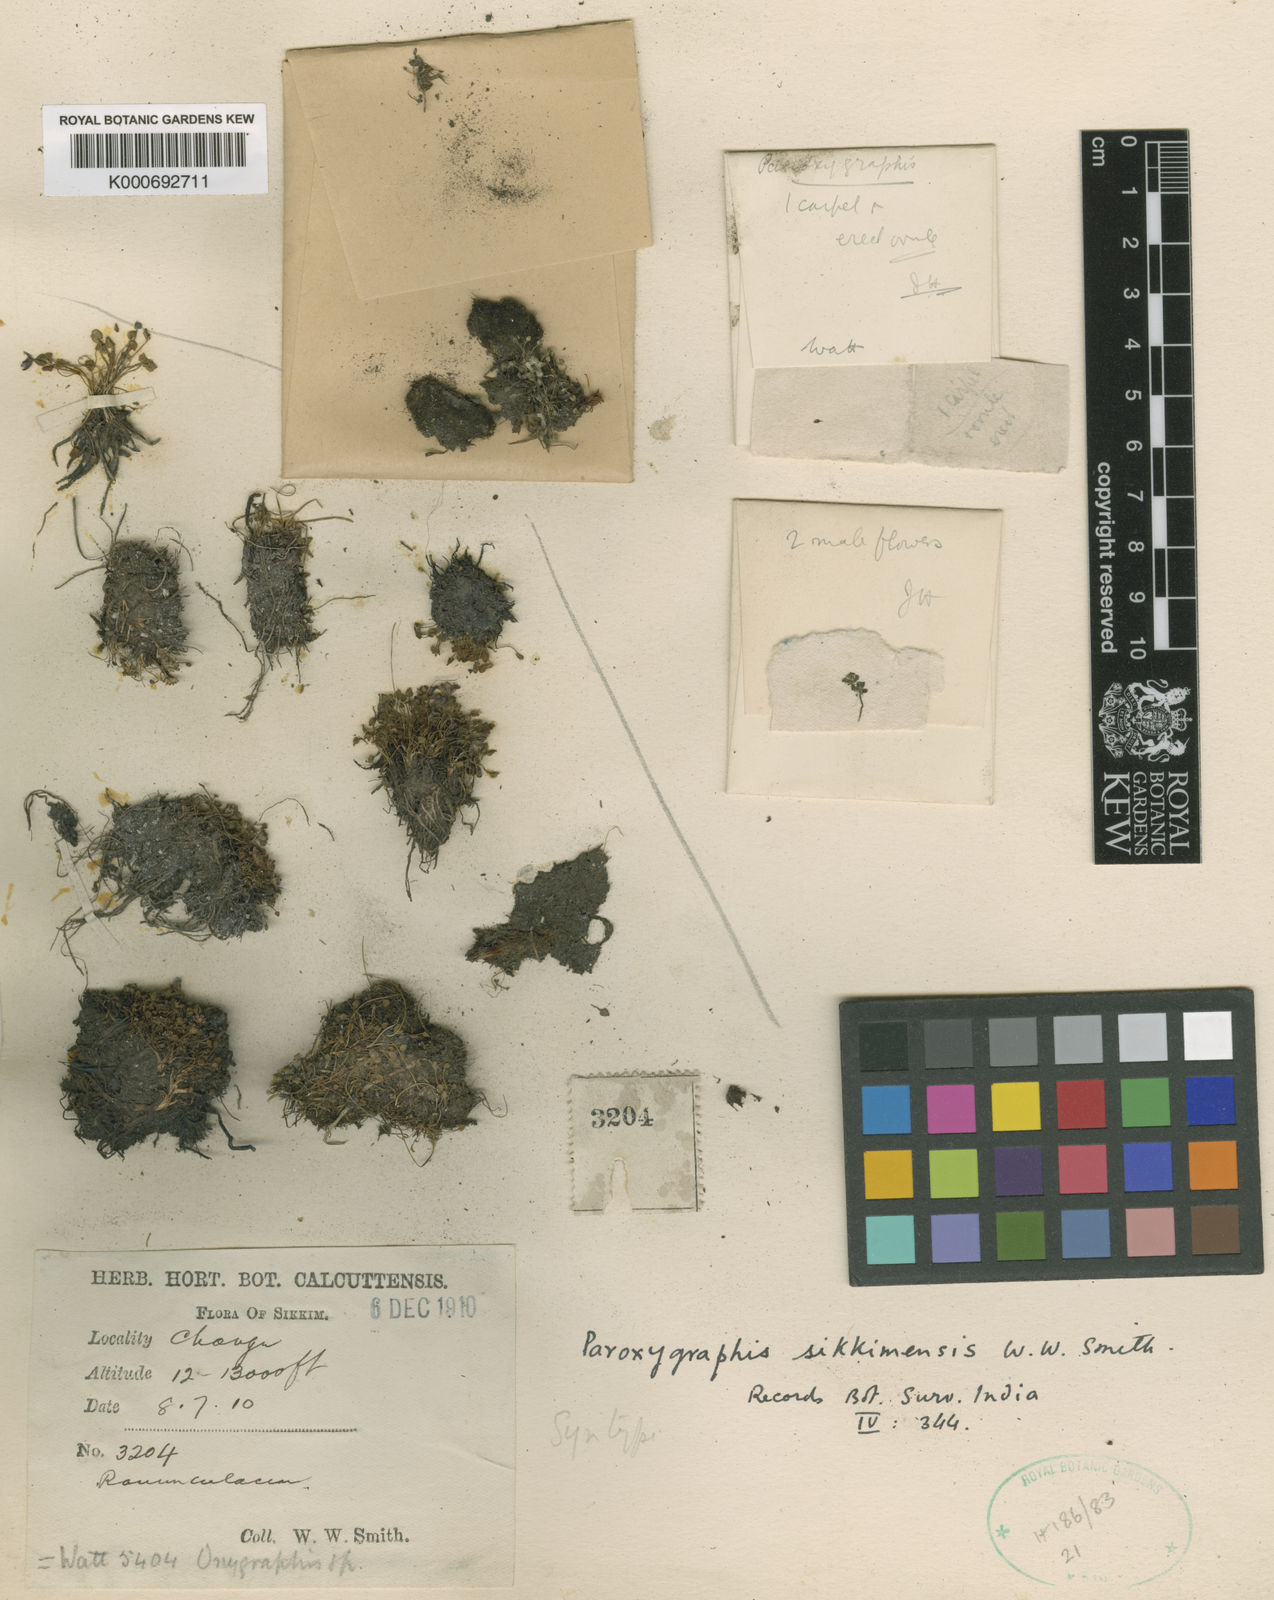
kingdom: Plantae
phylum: Tracheophyta
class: Magnoliopsida
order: Ranunculales
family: Ranunculaceae
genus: Ranunculus
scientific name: Ranunculus
